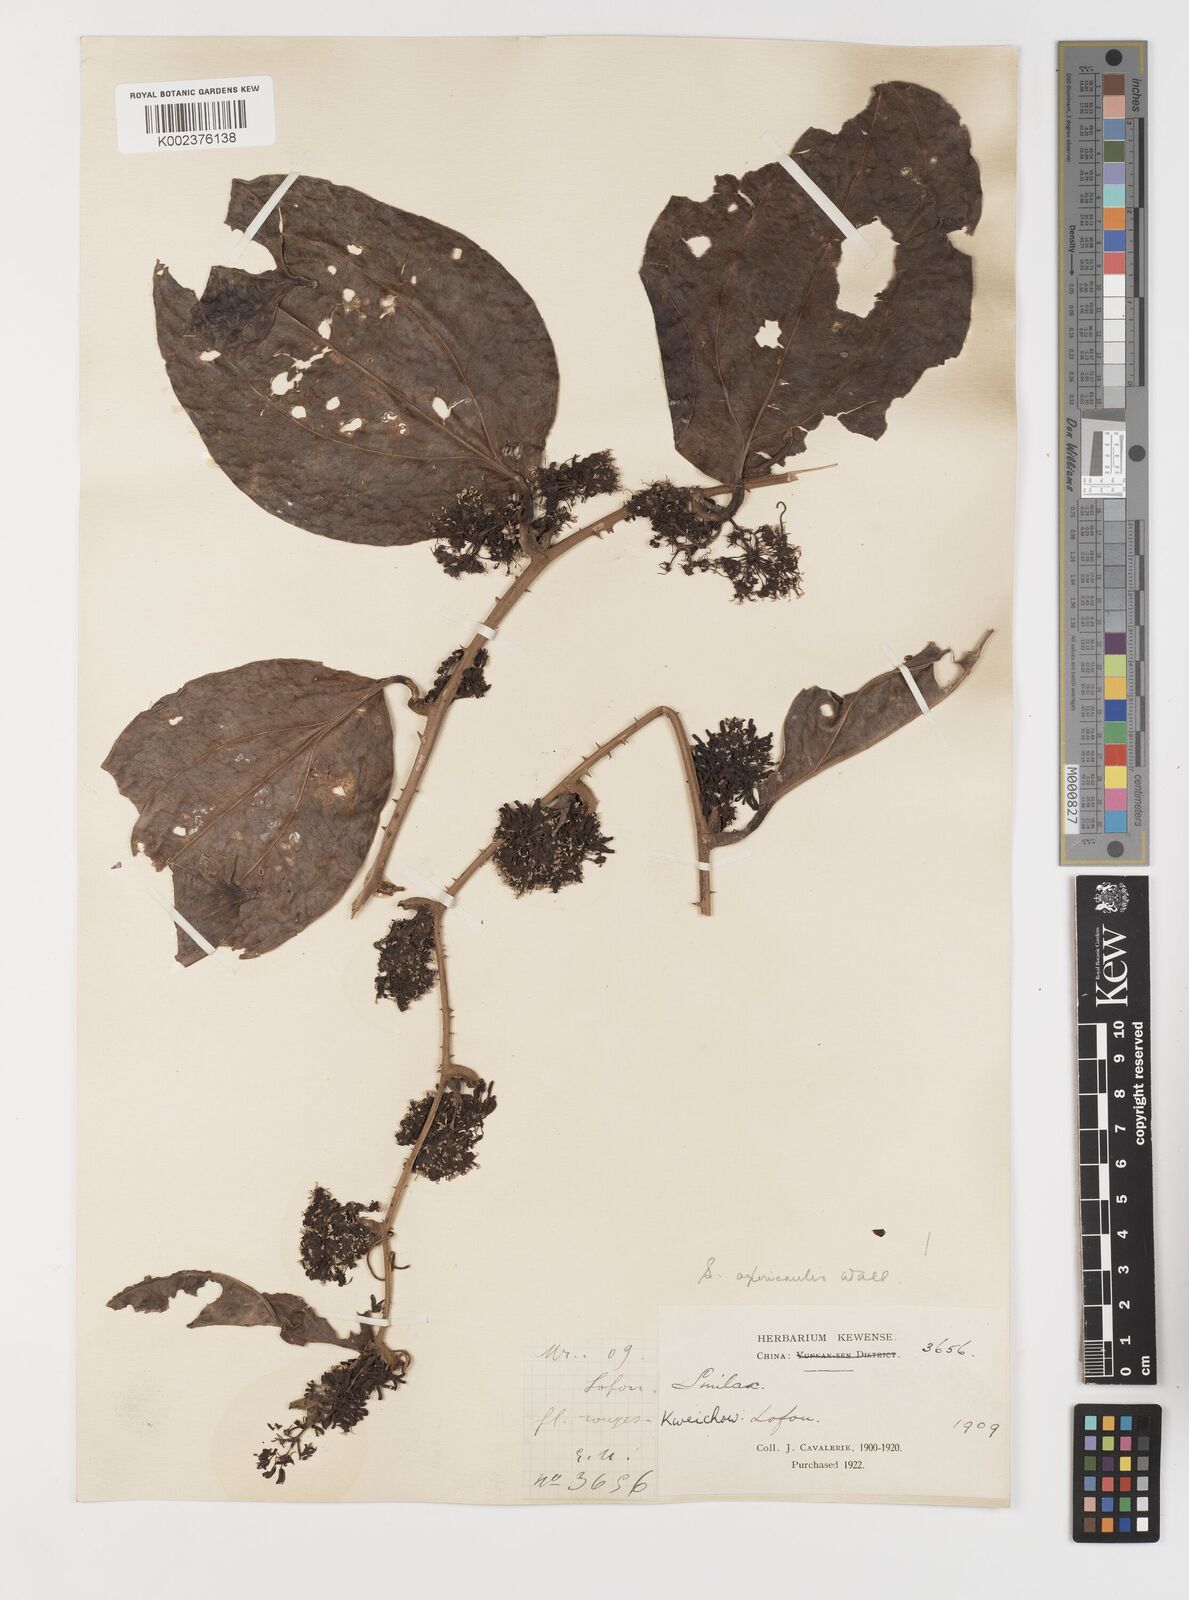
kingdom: Plantae
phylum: Tracheophyta
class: Liliopsida
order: Liliales
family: Smilacaceae
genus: Smilax
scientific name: Smilax aspericaulis
